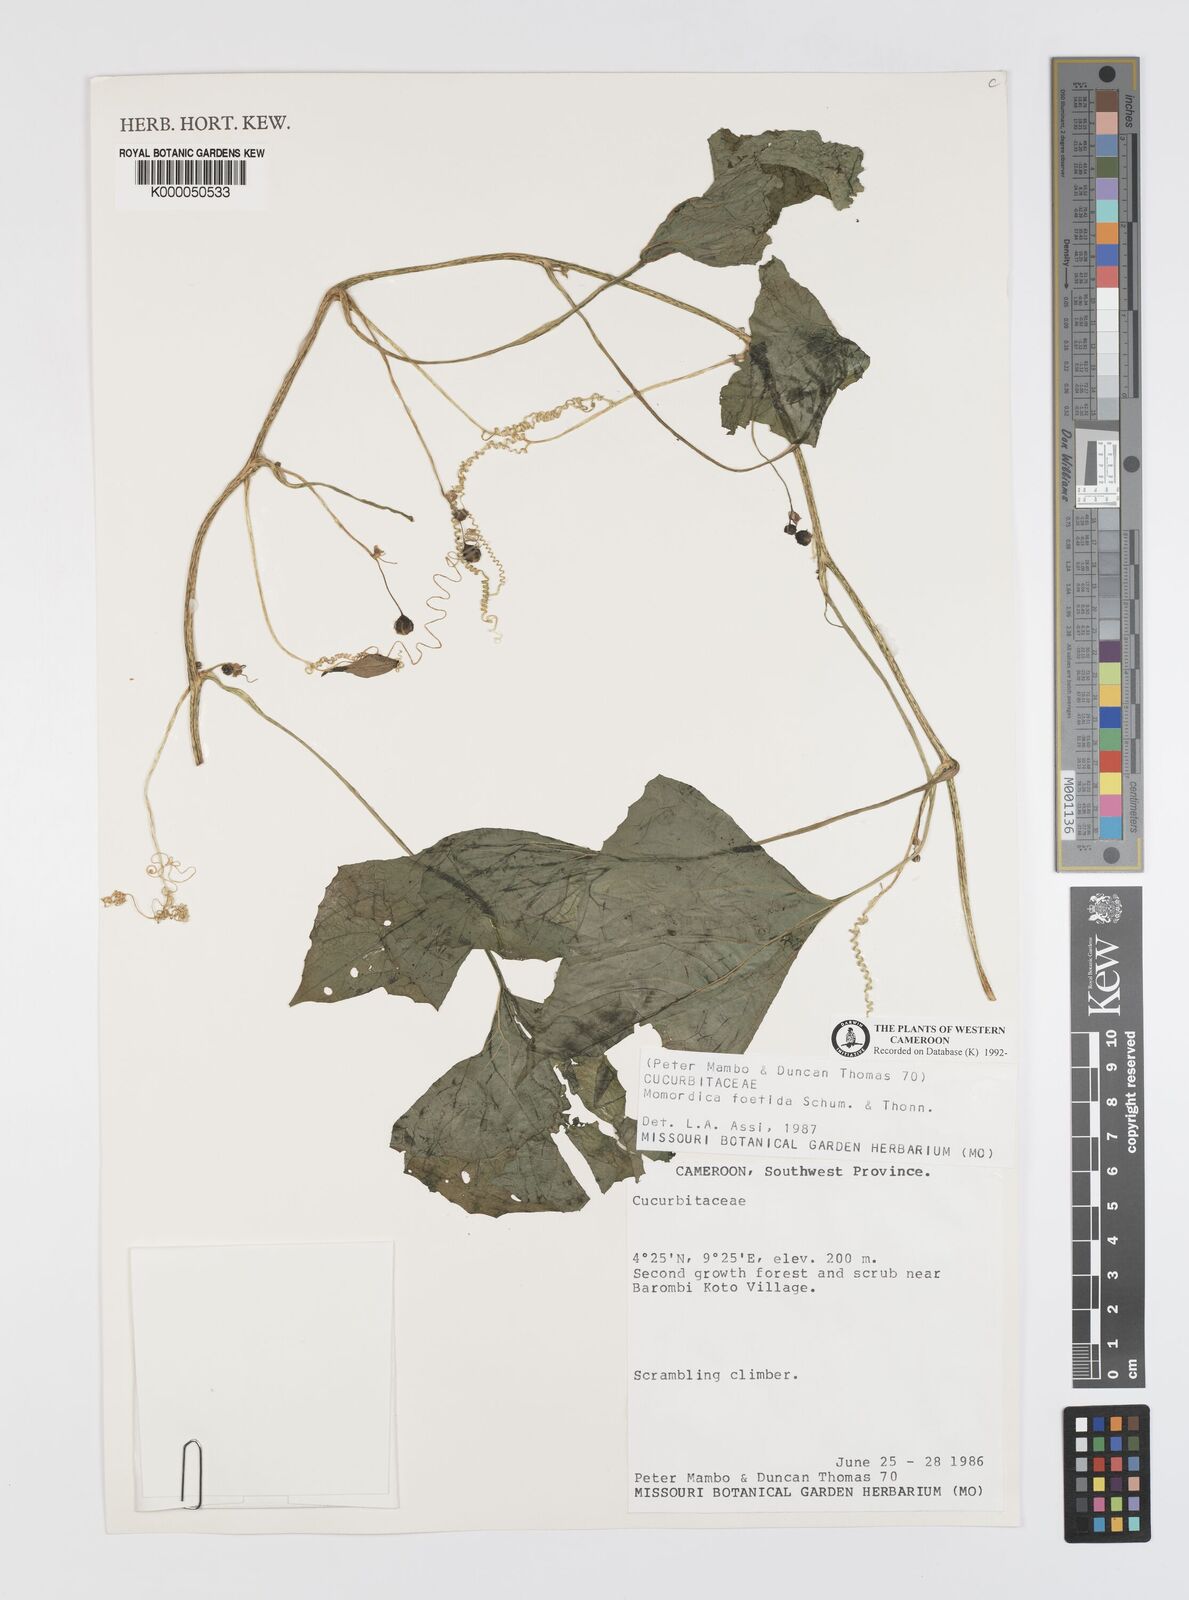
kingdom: Plantae
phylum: Tracheophyta
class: Magnoliopsida
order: Cucurbitales
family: Cucurbitaceae
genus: Momordica
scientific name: Momordica foetida
